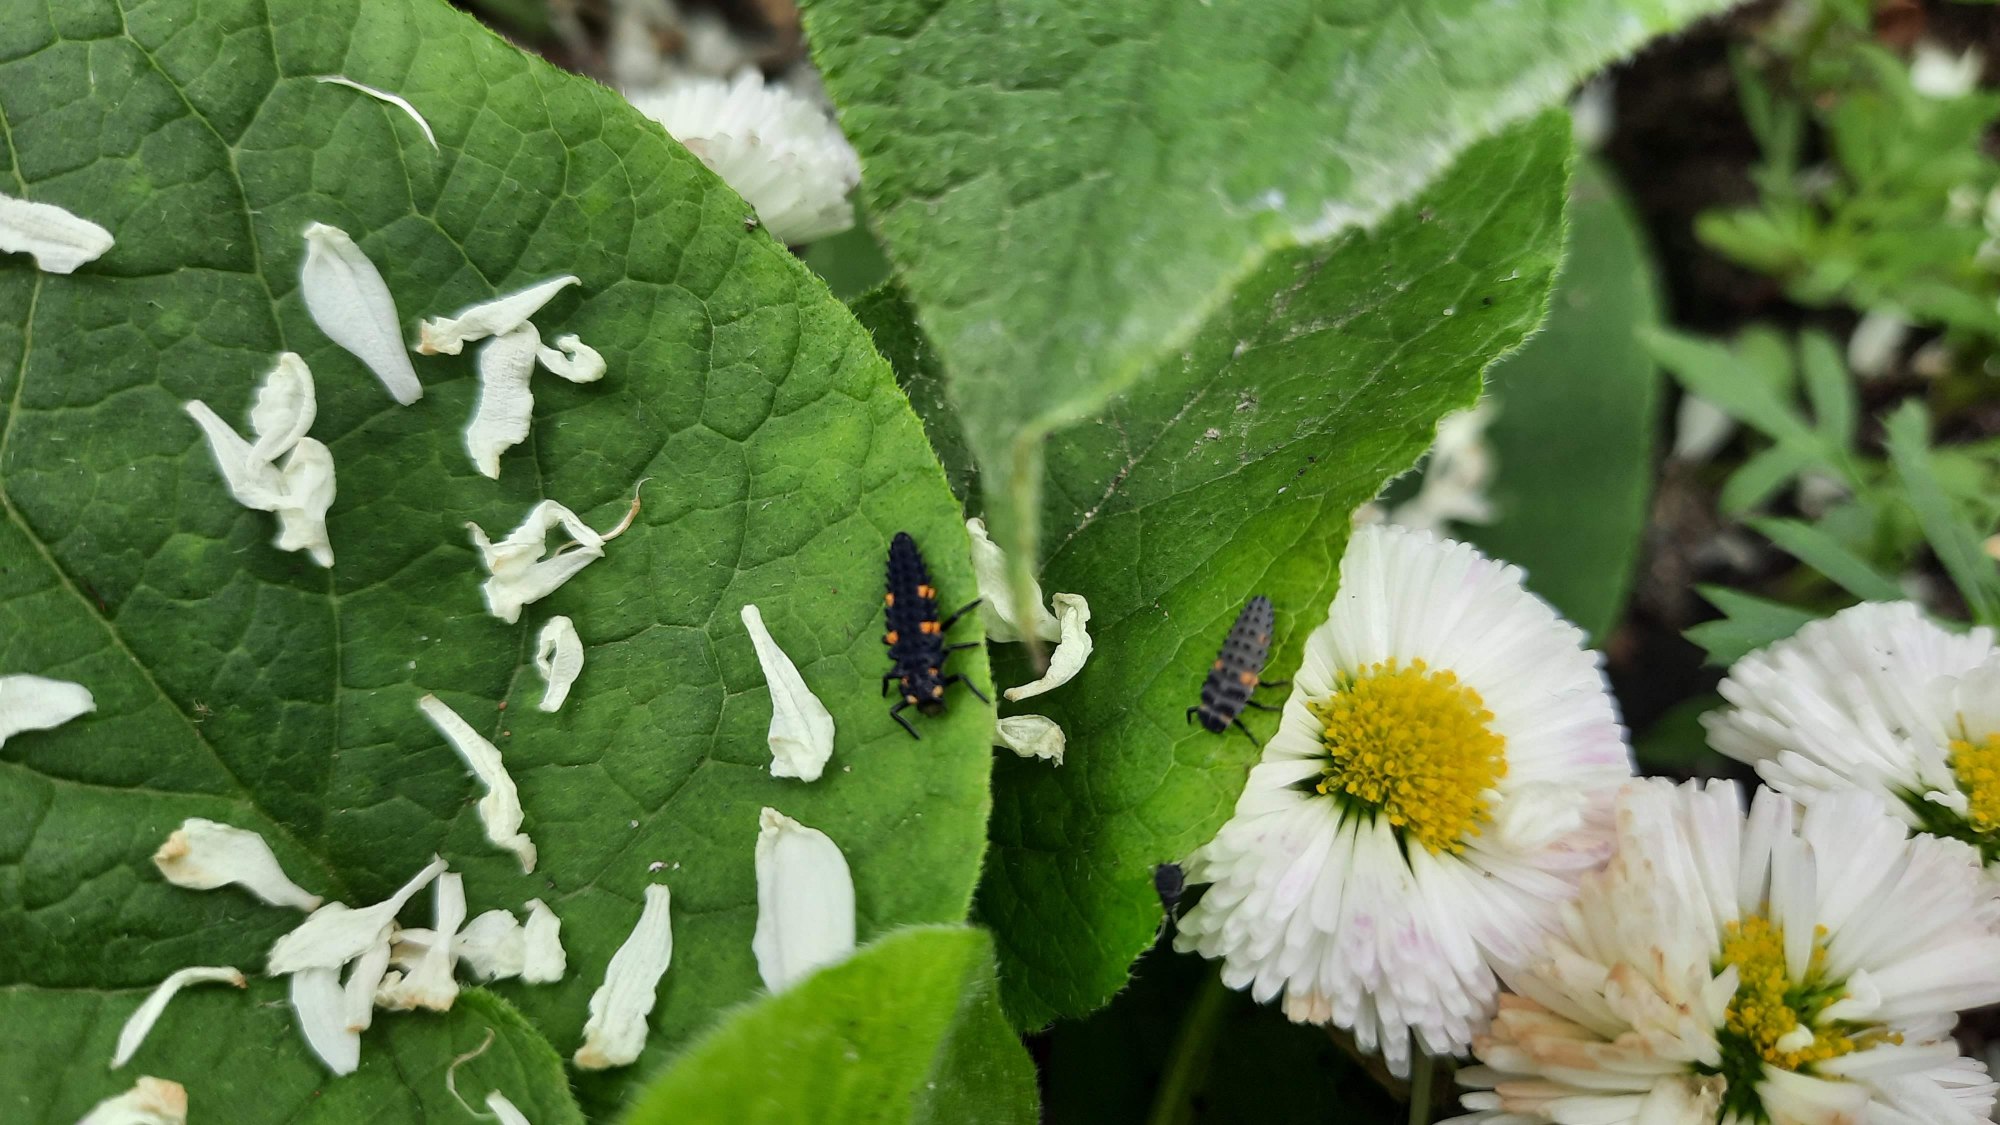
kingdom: Animalia
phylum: Arthropoda
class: Insecta
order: Coleoptera
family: Coccinellidae
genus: Coccinella
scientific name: Coccinella septempunctata
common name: Syvplettet mariehøne
